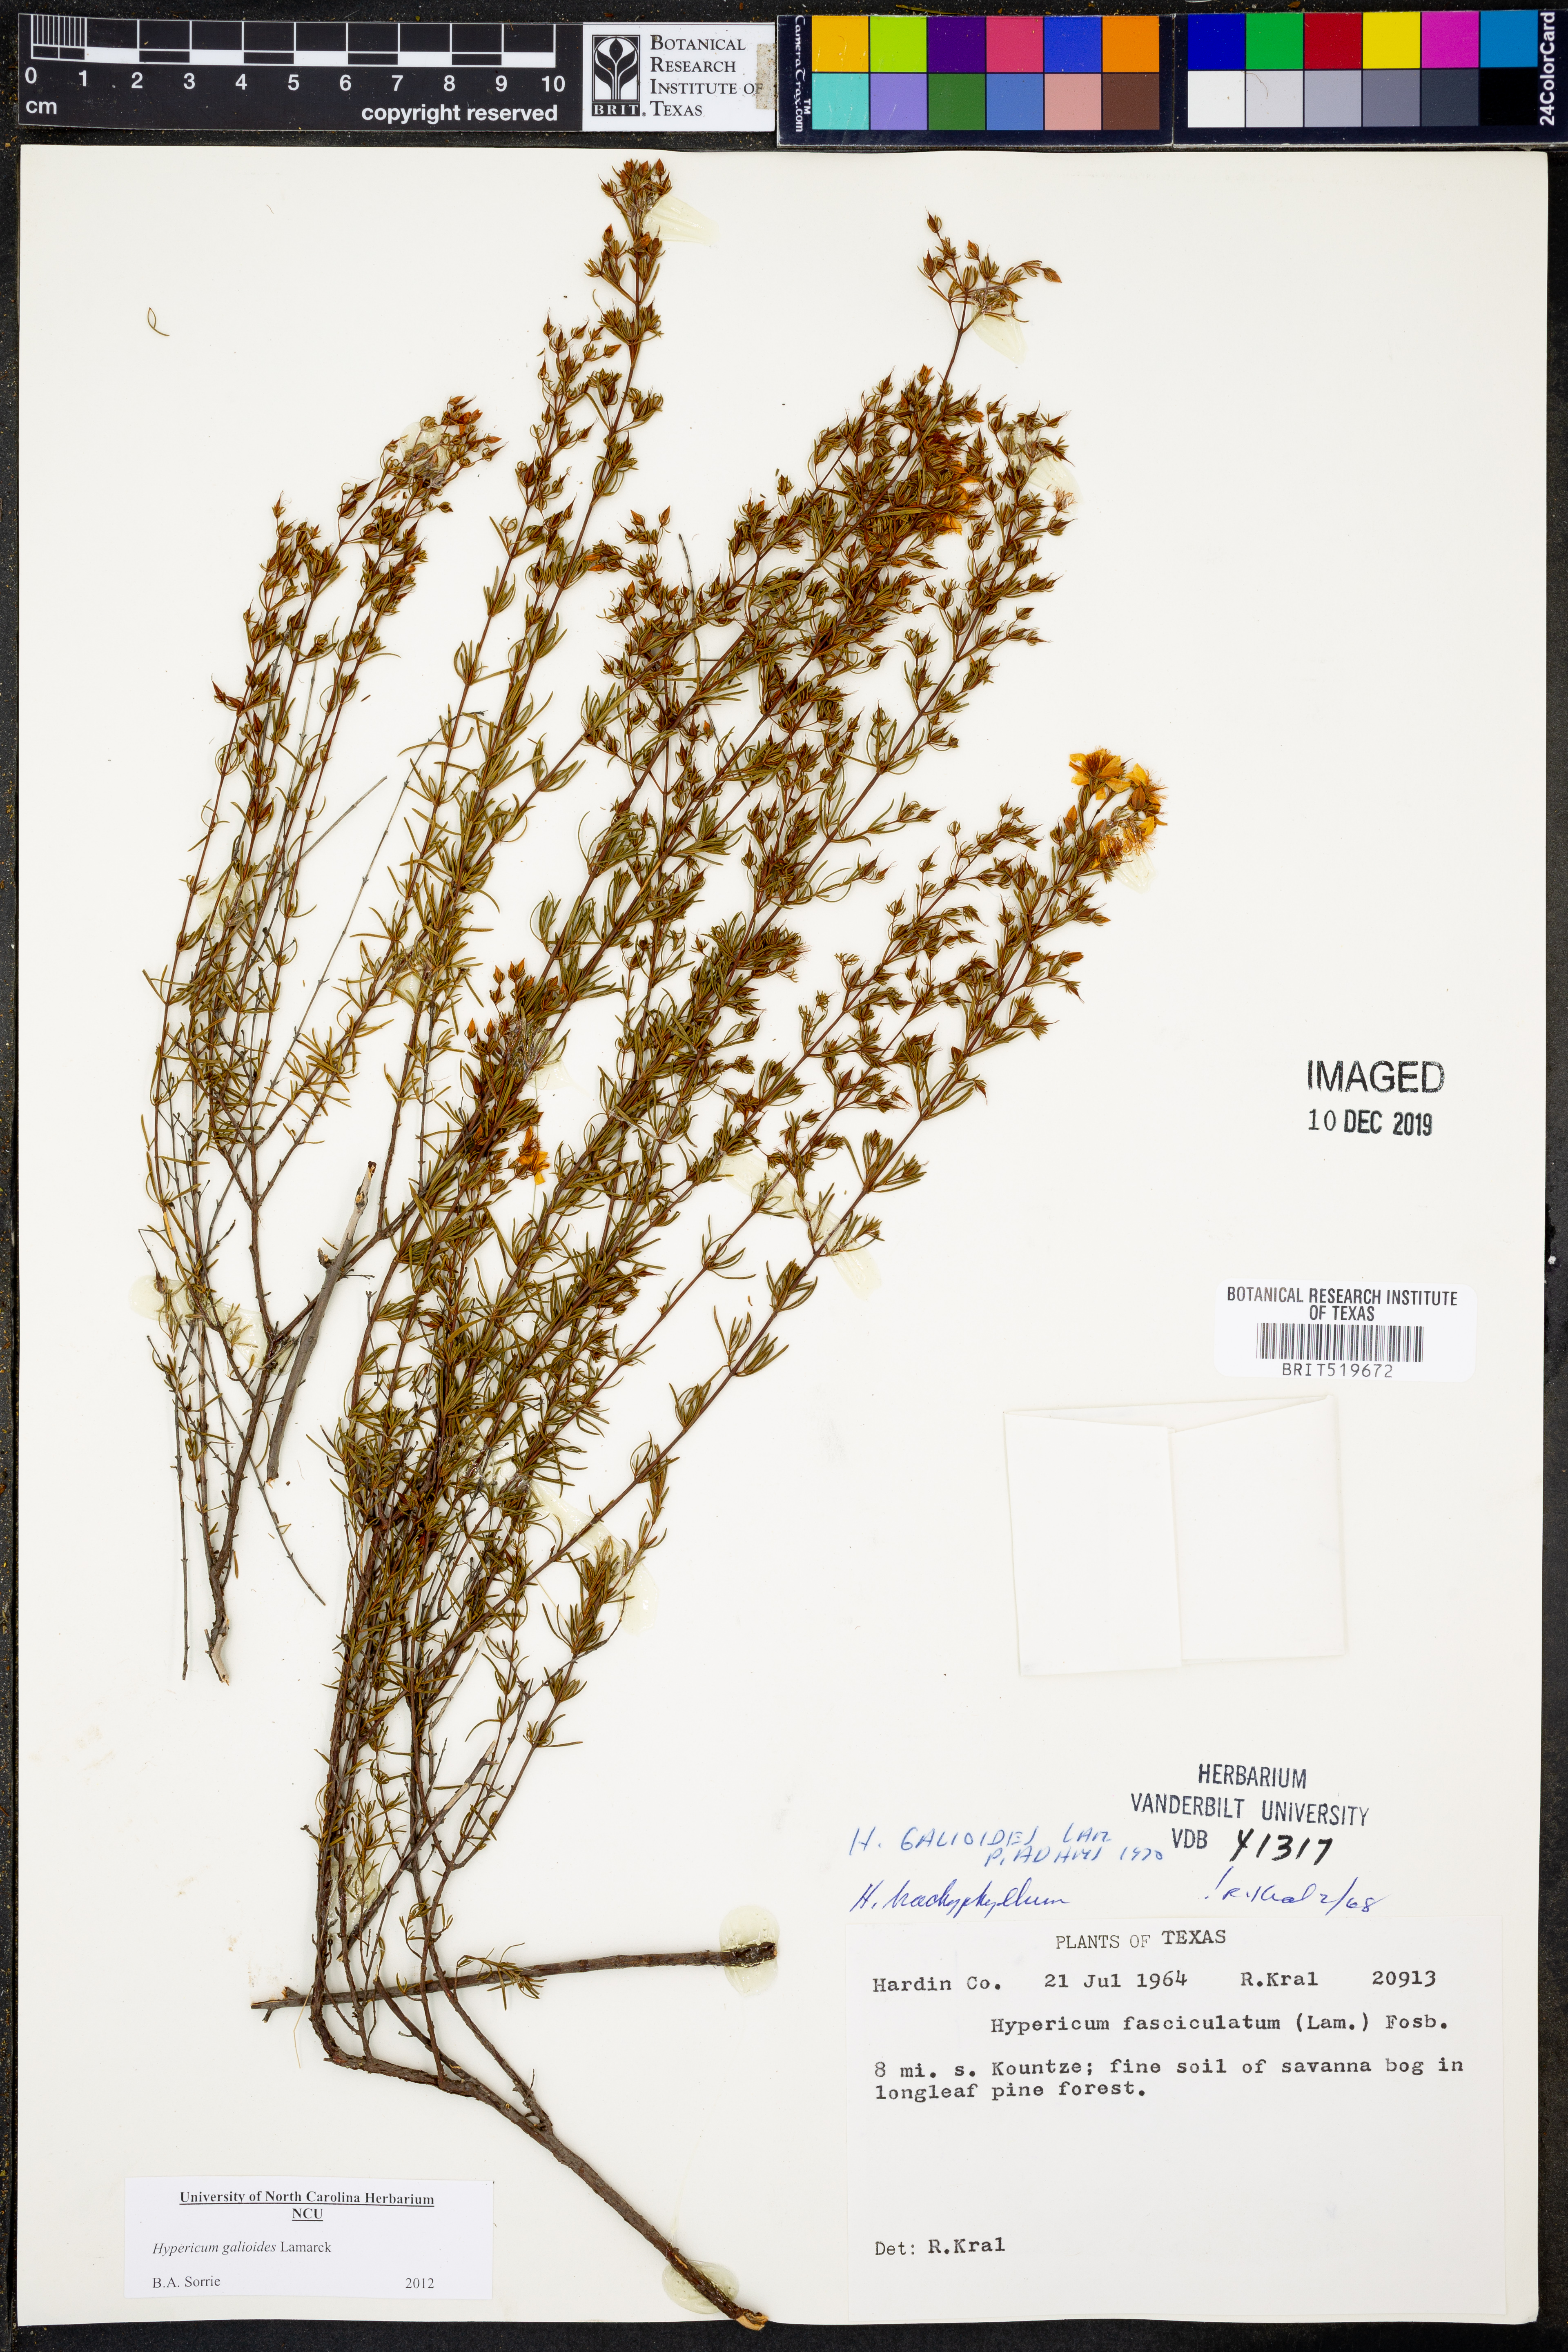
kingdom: Plantae
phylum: Tracheophyta
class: Magnoliopsida
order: Malpighiales
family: Hypericaceae
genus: Hypericum
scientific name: Hypericum galioides
